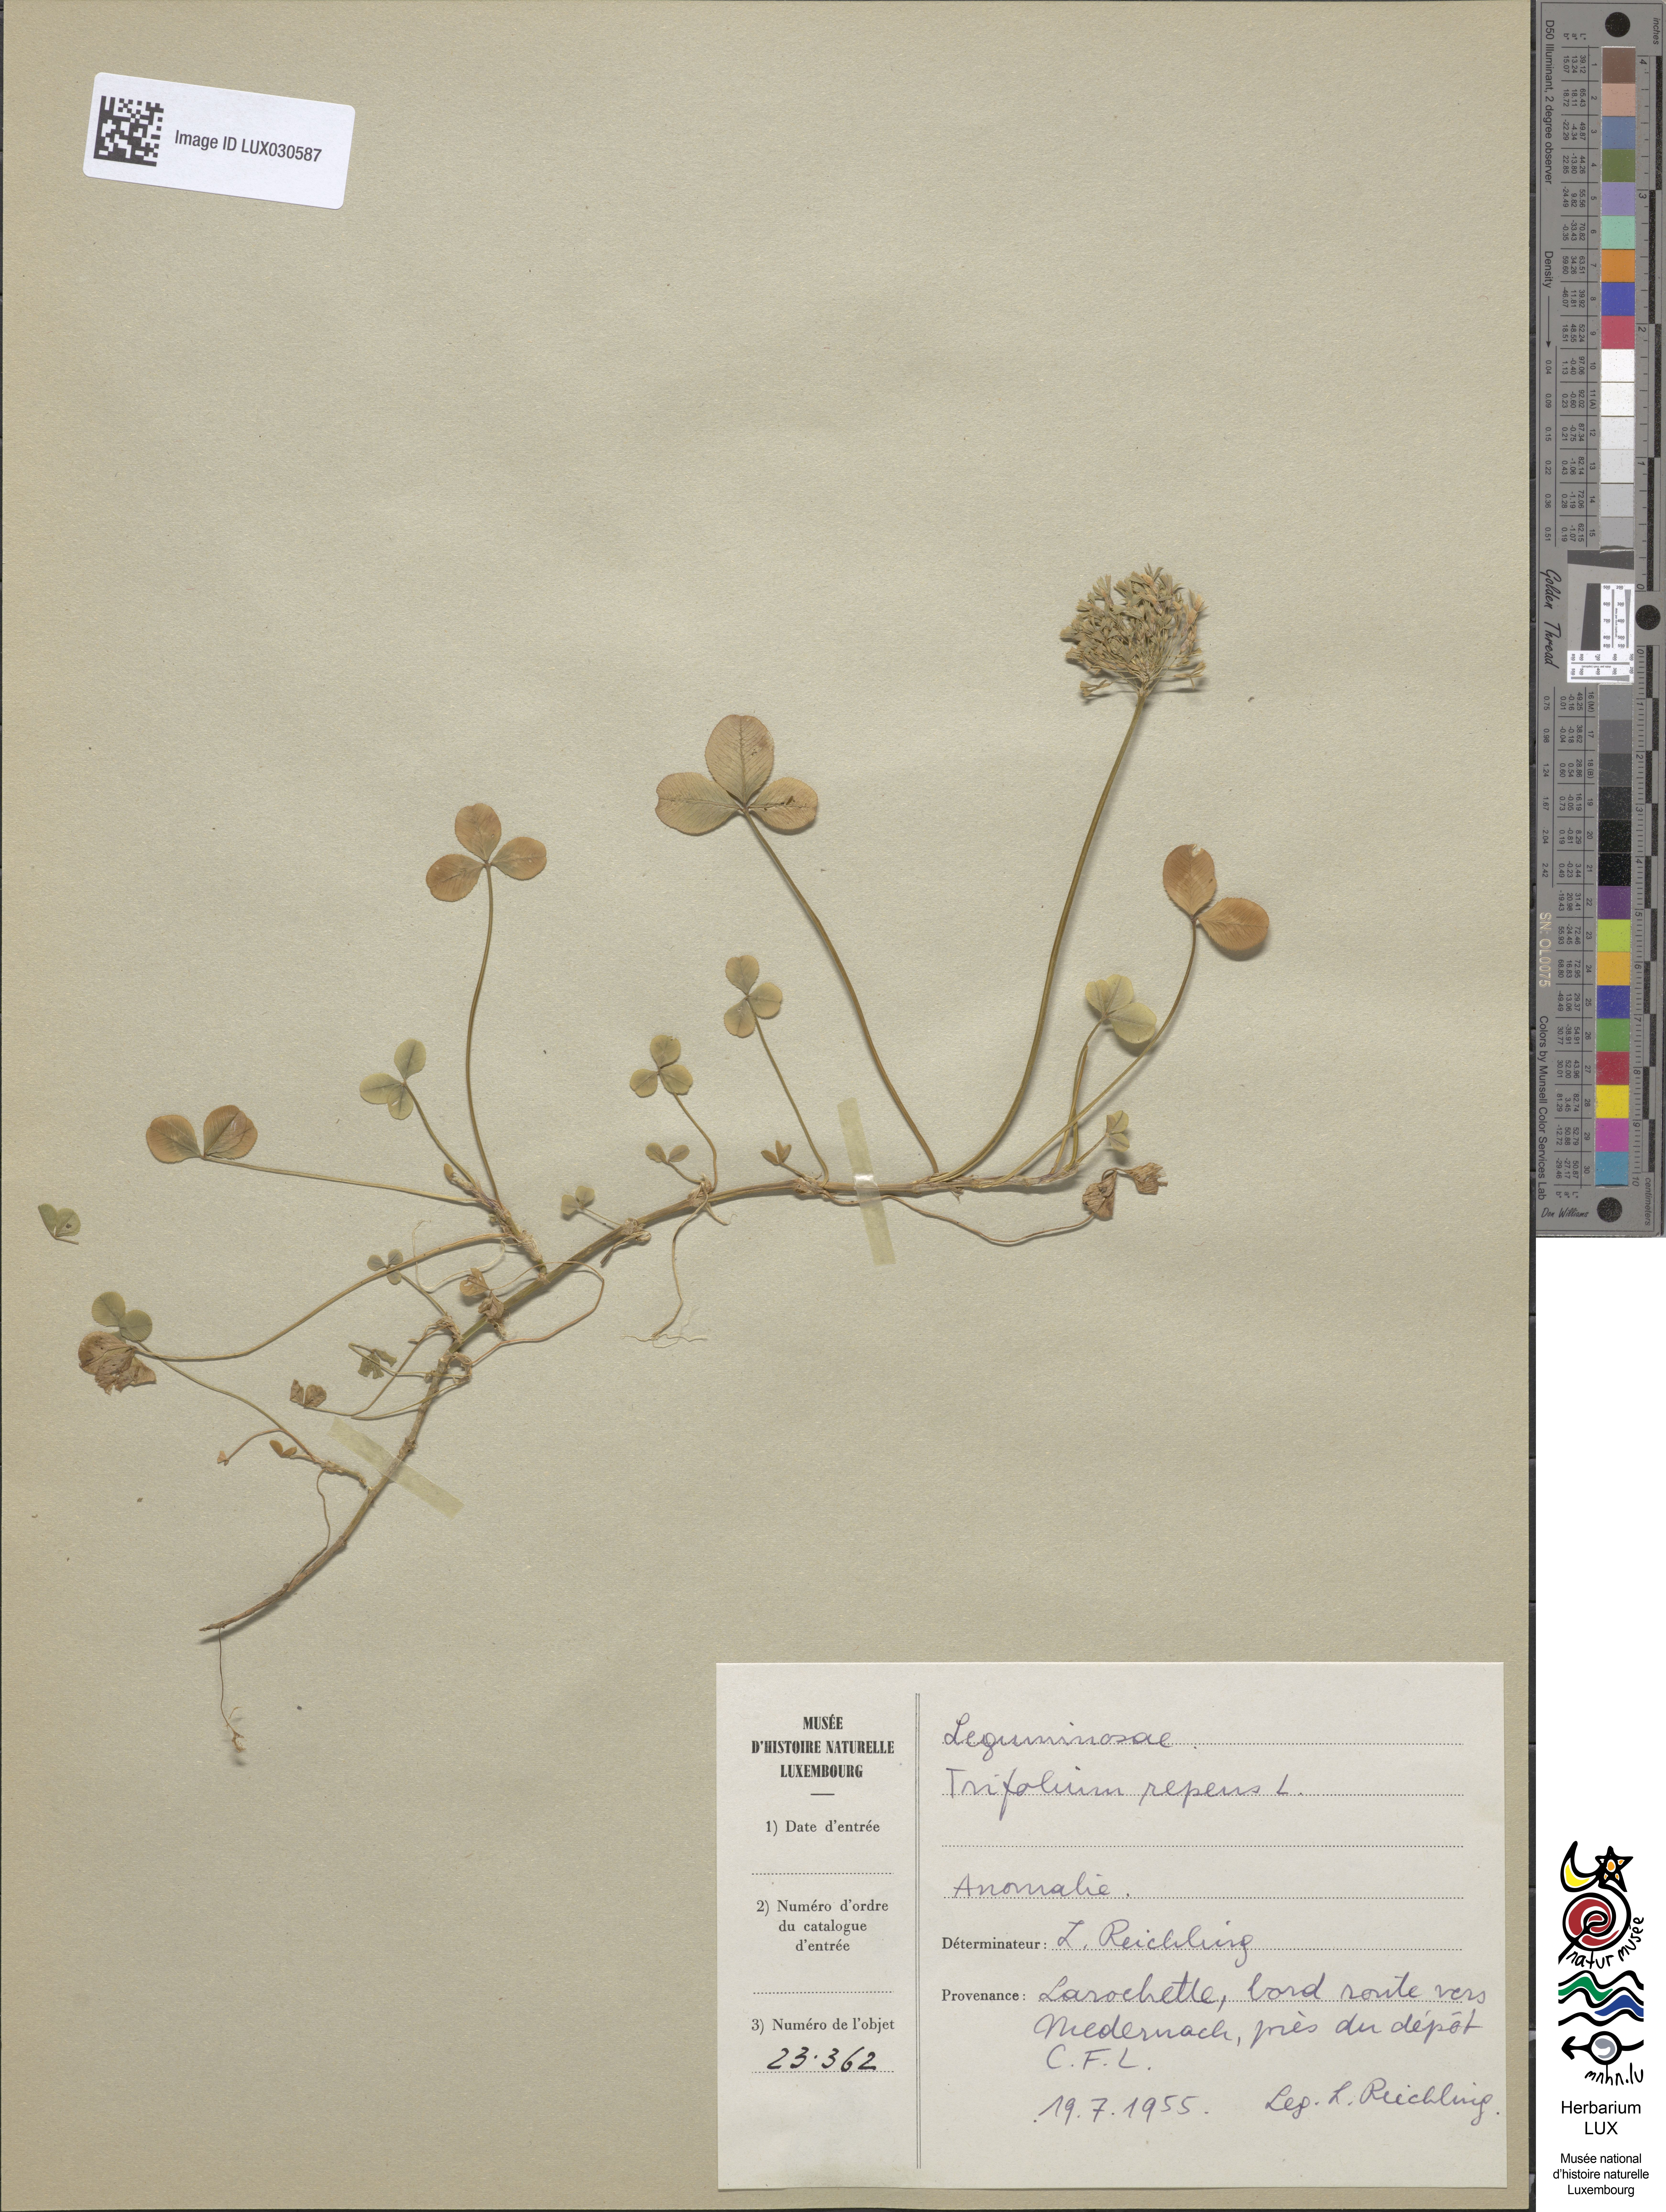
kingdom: Plantae
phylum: Tracheophyta
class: Magnoliopsida
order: Fabales
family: Fabaceae
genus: Trifolium
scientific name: Trifolium repens
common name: White clover
